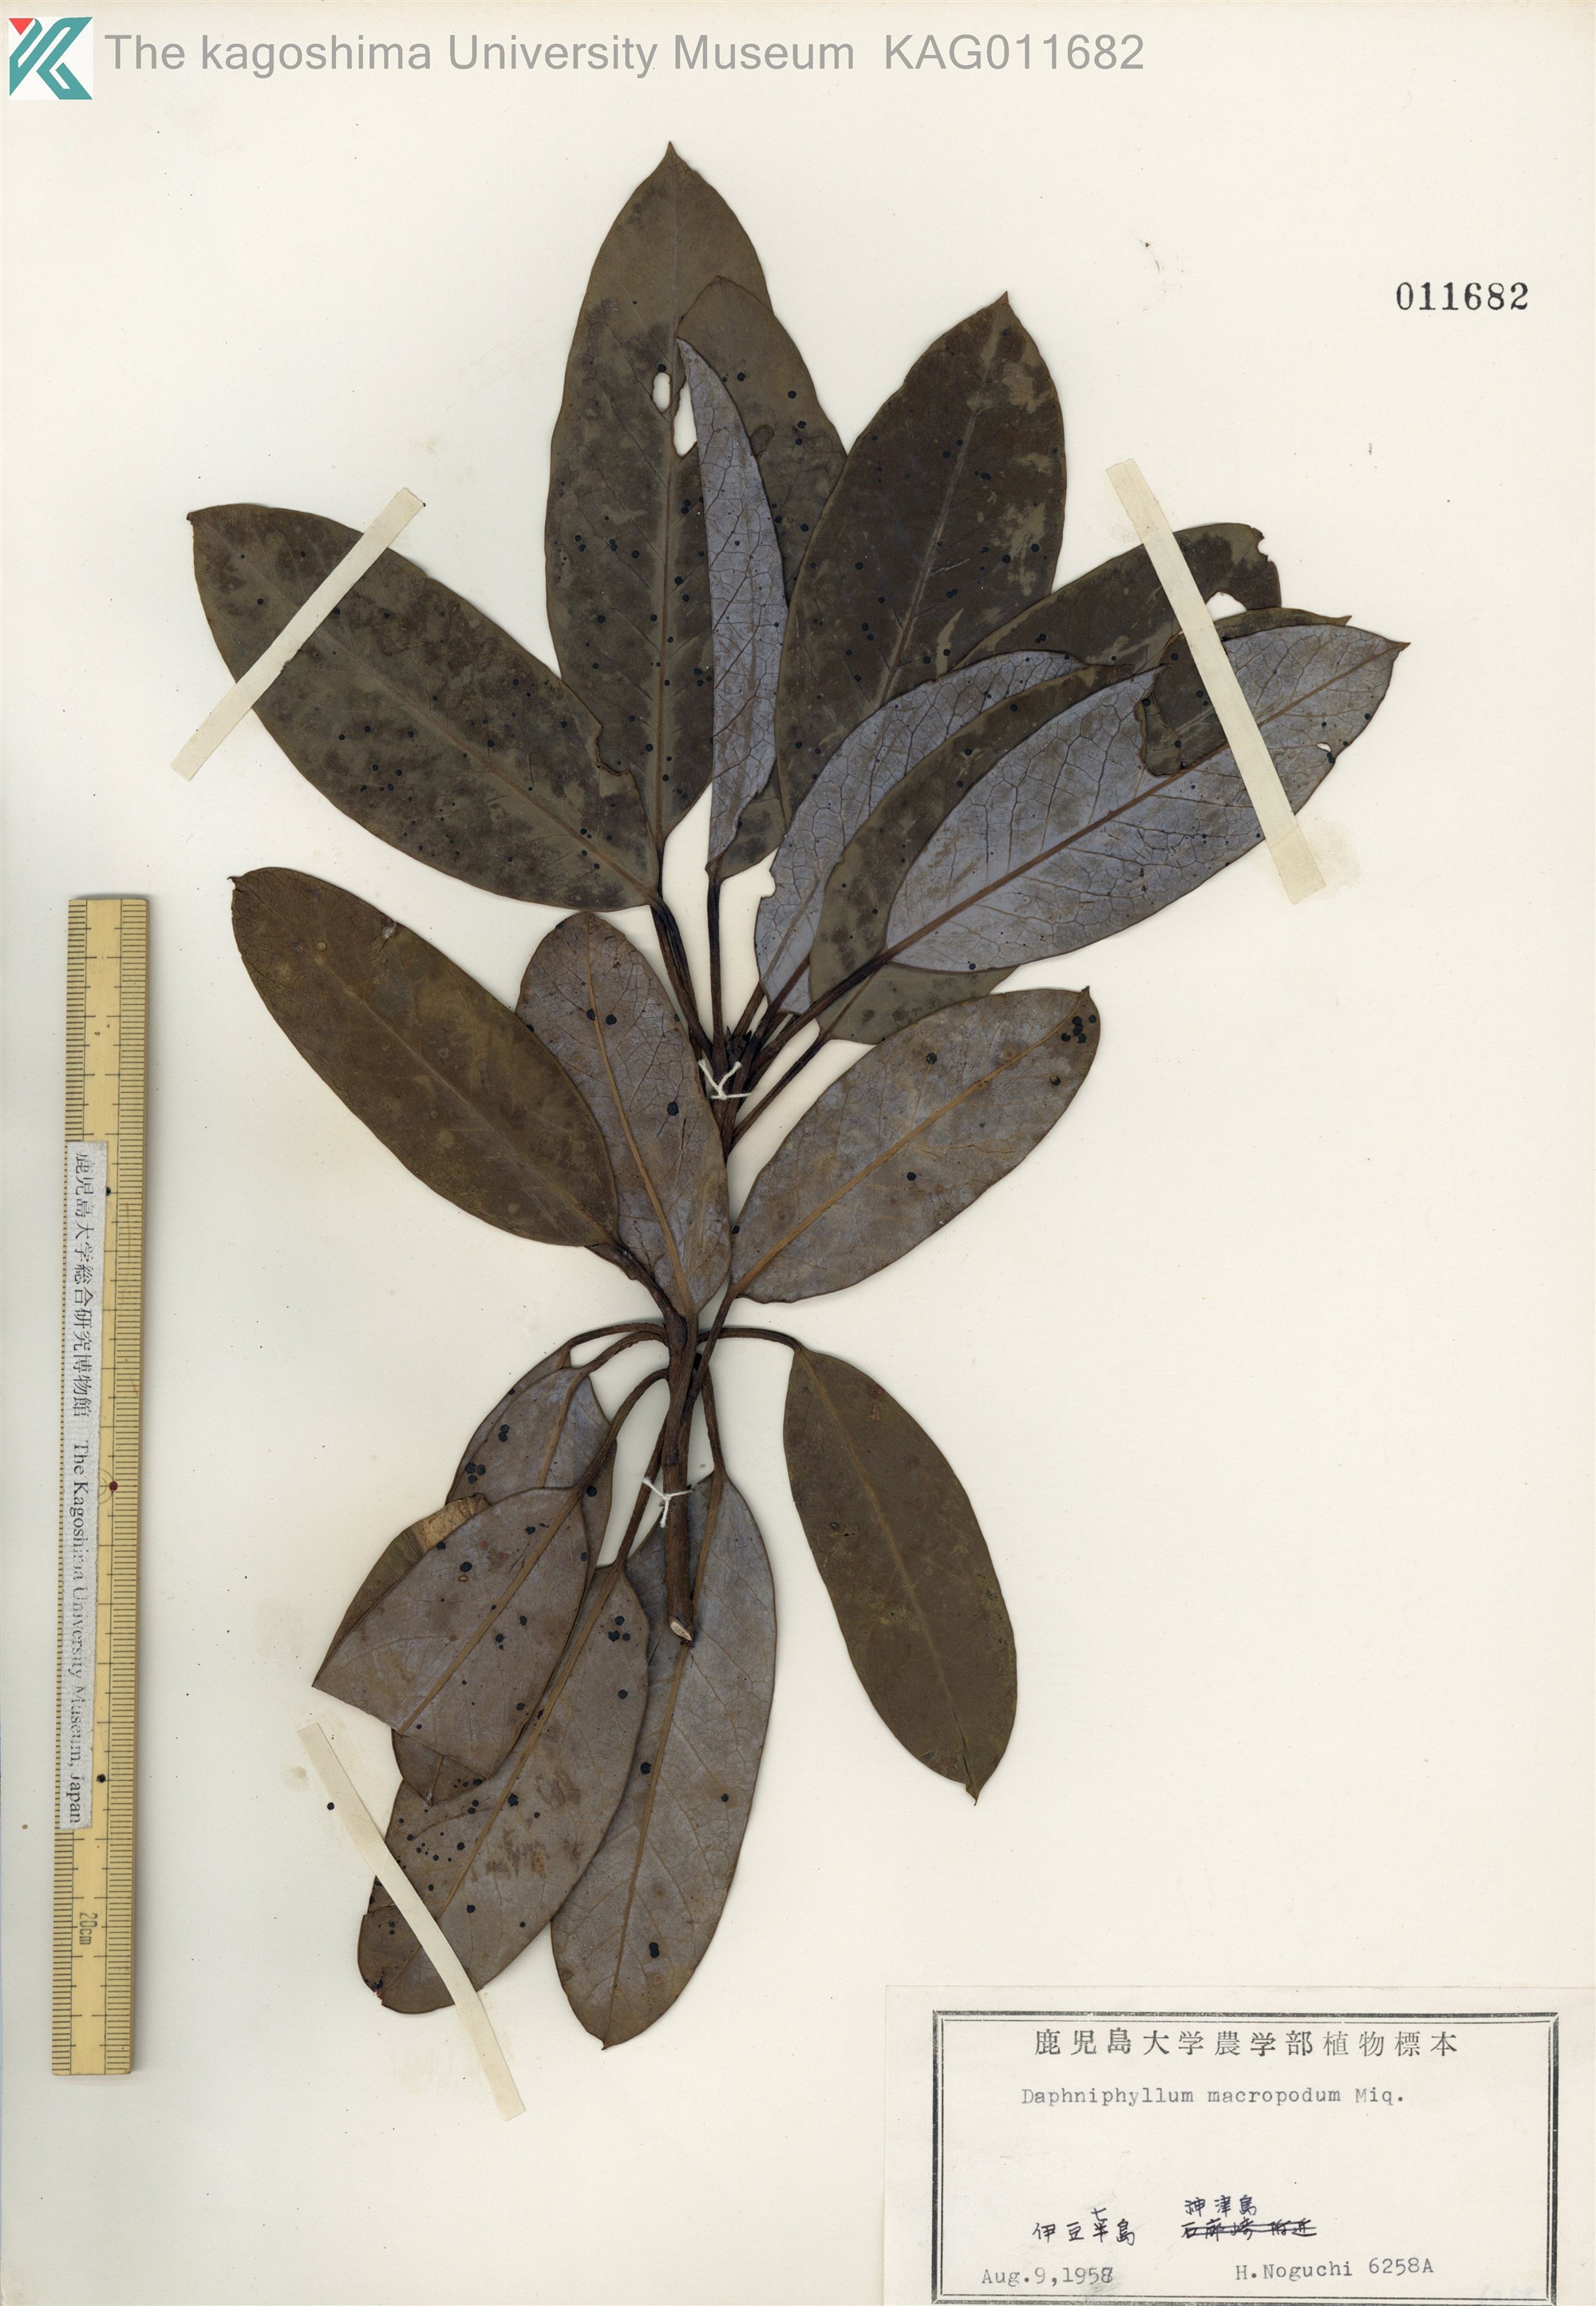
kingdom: Plantae
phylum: Tracheophyta
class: Magnoliopsida
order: Saxifragales
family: Daphniphyllaceae
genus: Daphniphyllum
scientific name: Daphniphyllum macropodum
